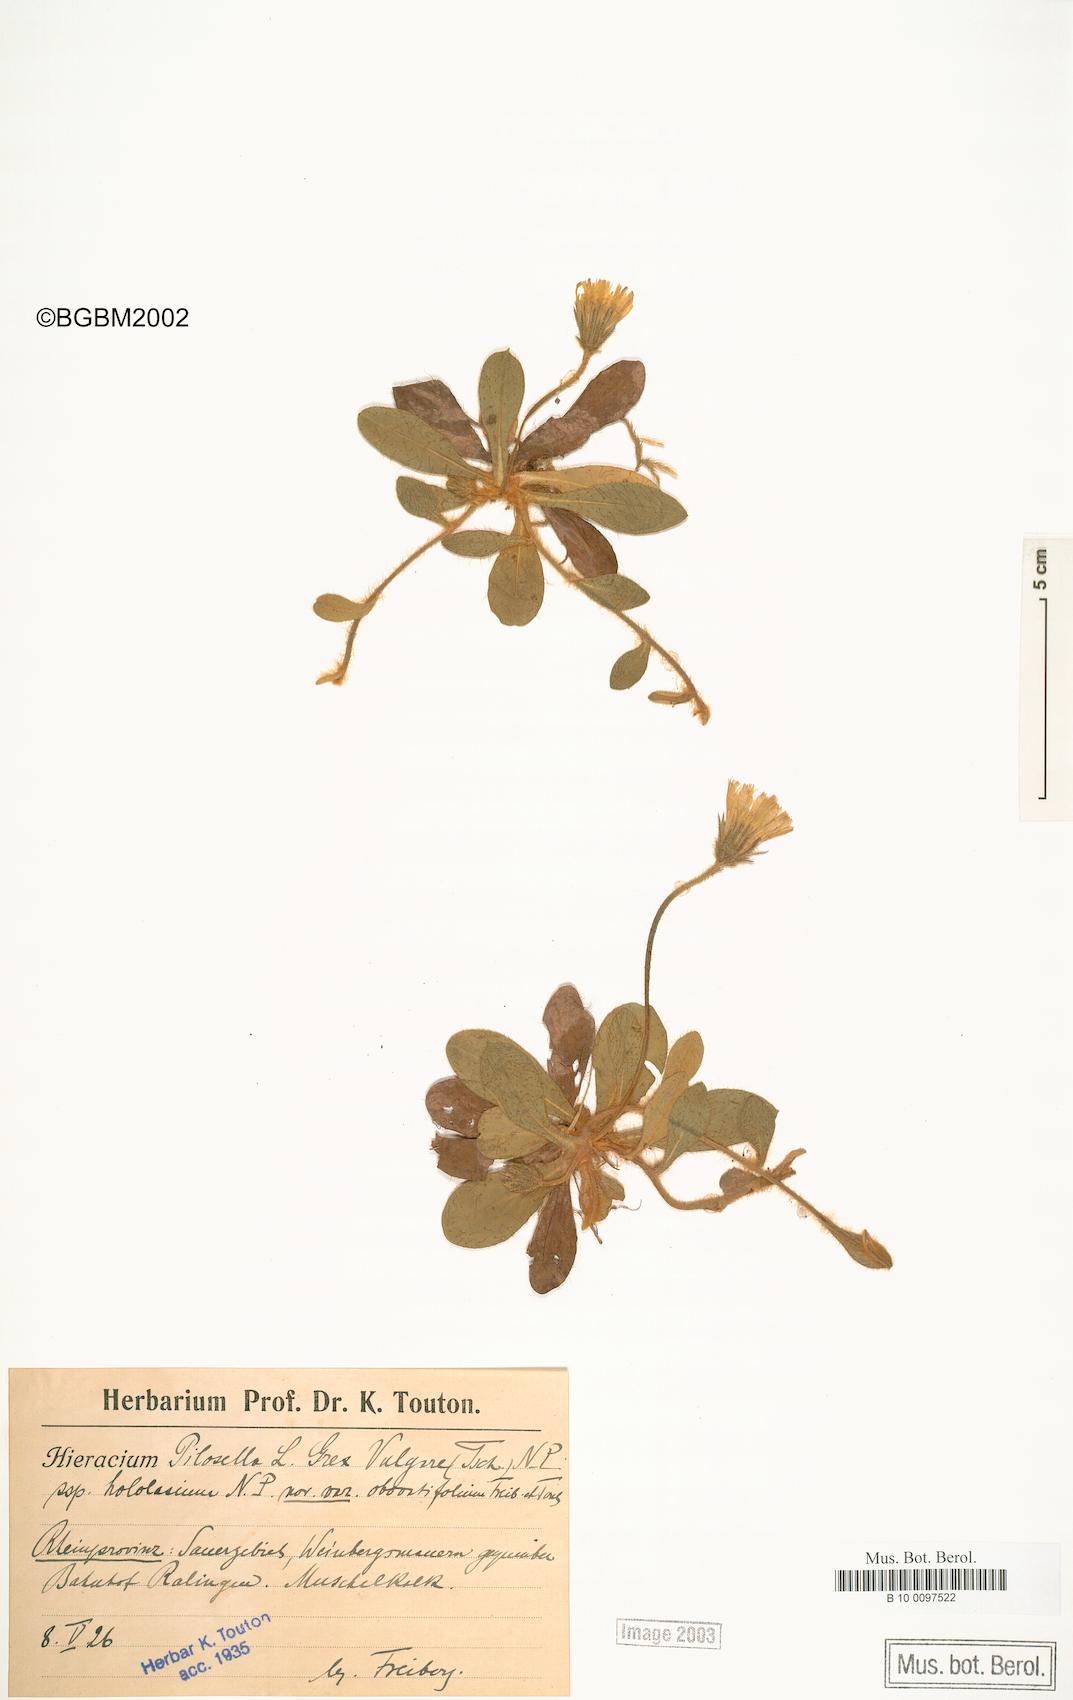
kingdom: Plantae
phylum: Tracheophyta
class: Magnoliopsida
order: Asterales
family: Asteraceae
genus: Pilosella
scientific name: Pilosella officinarum
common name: Mouse-ear hawkweed
